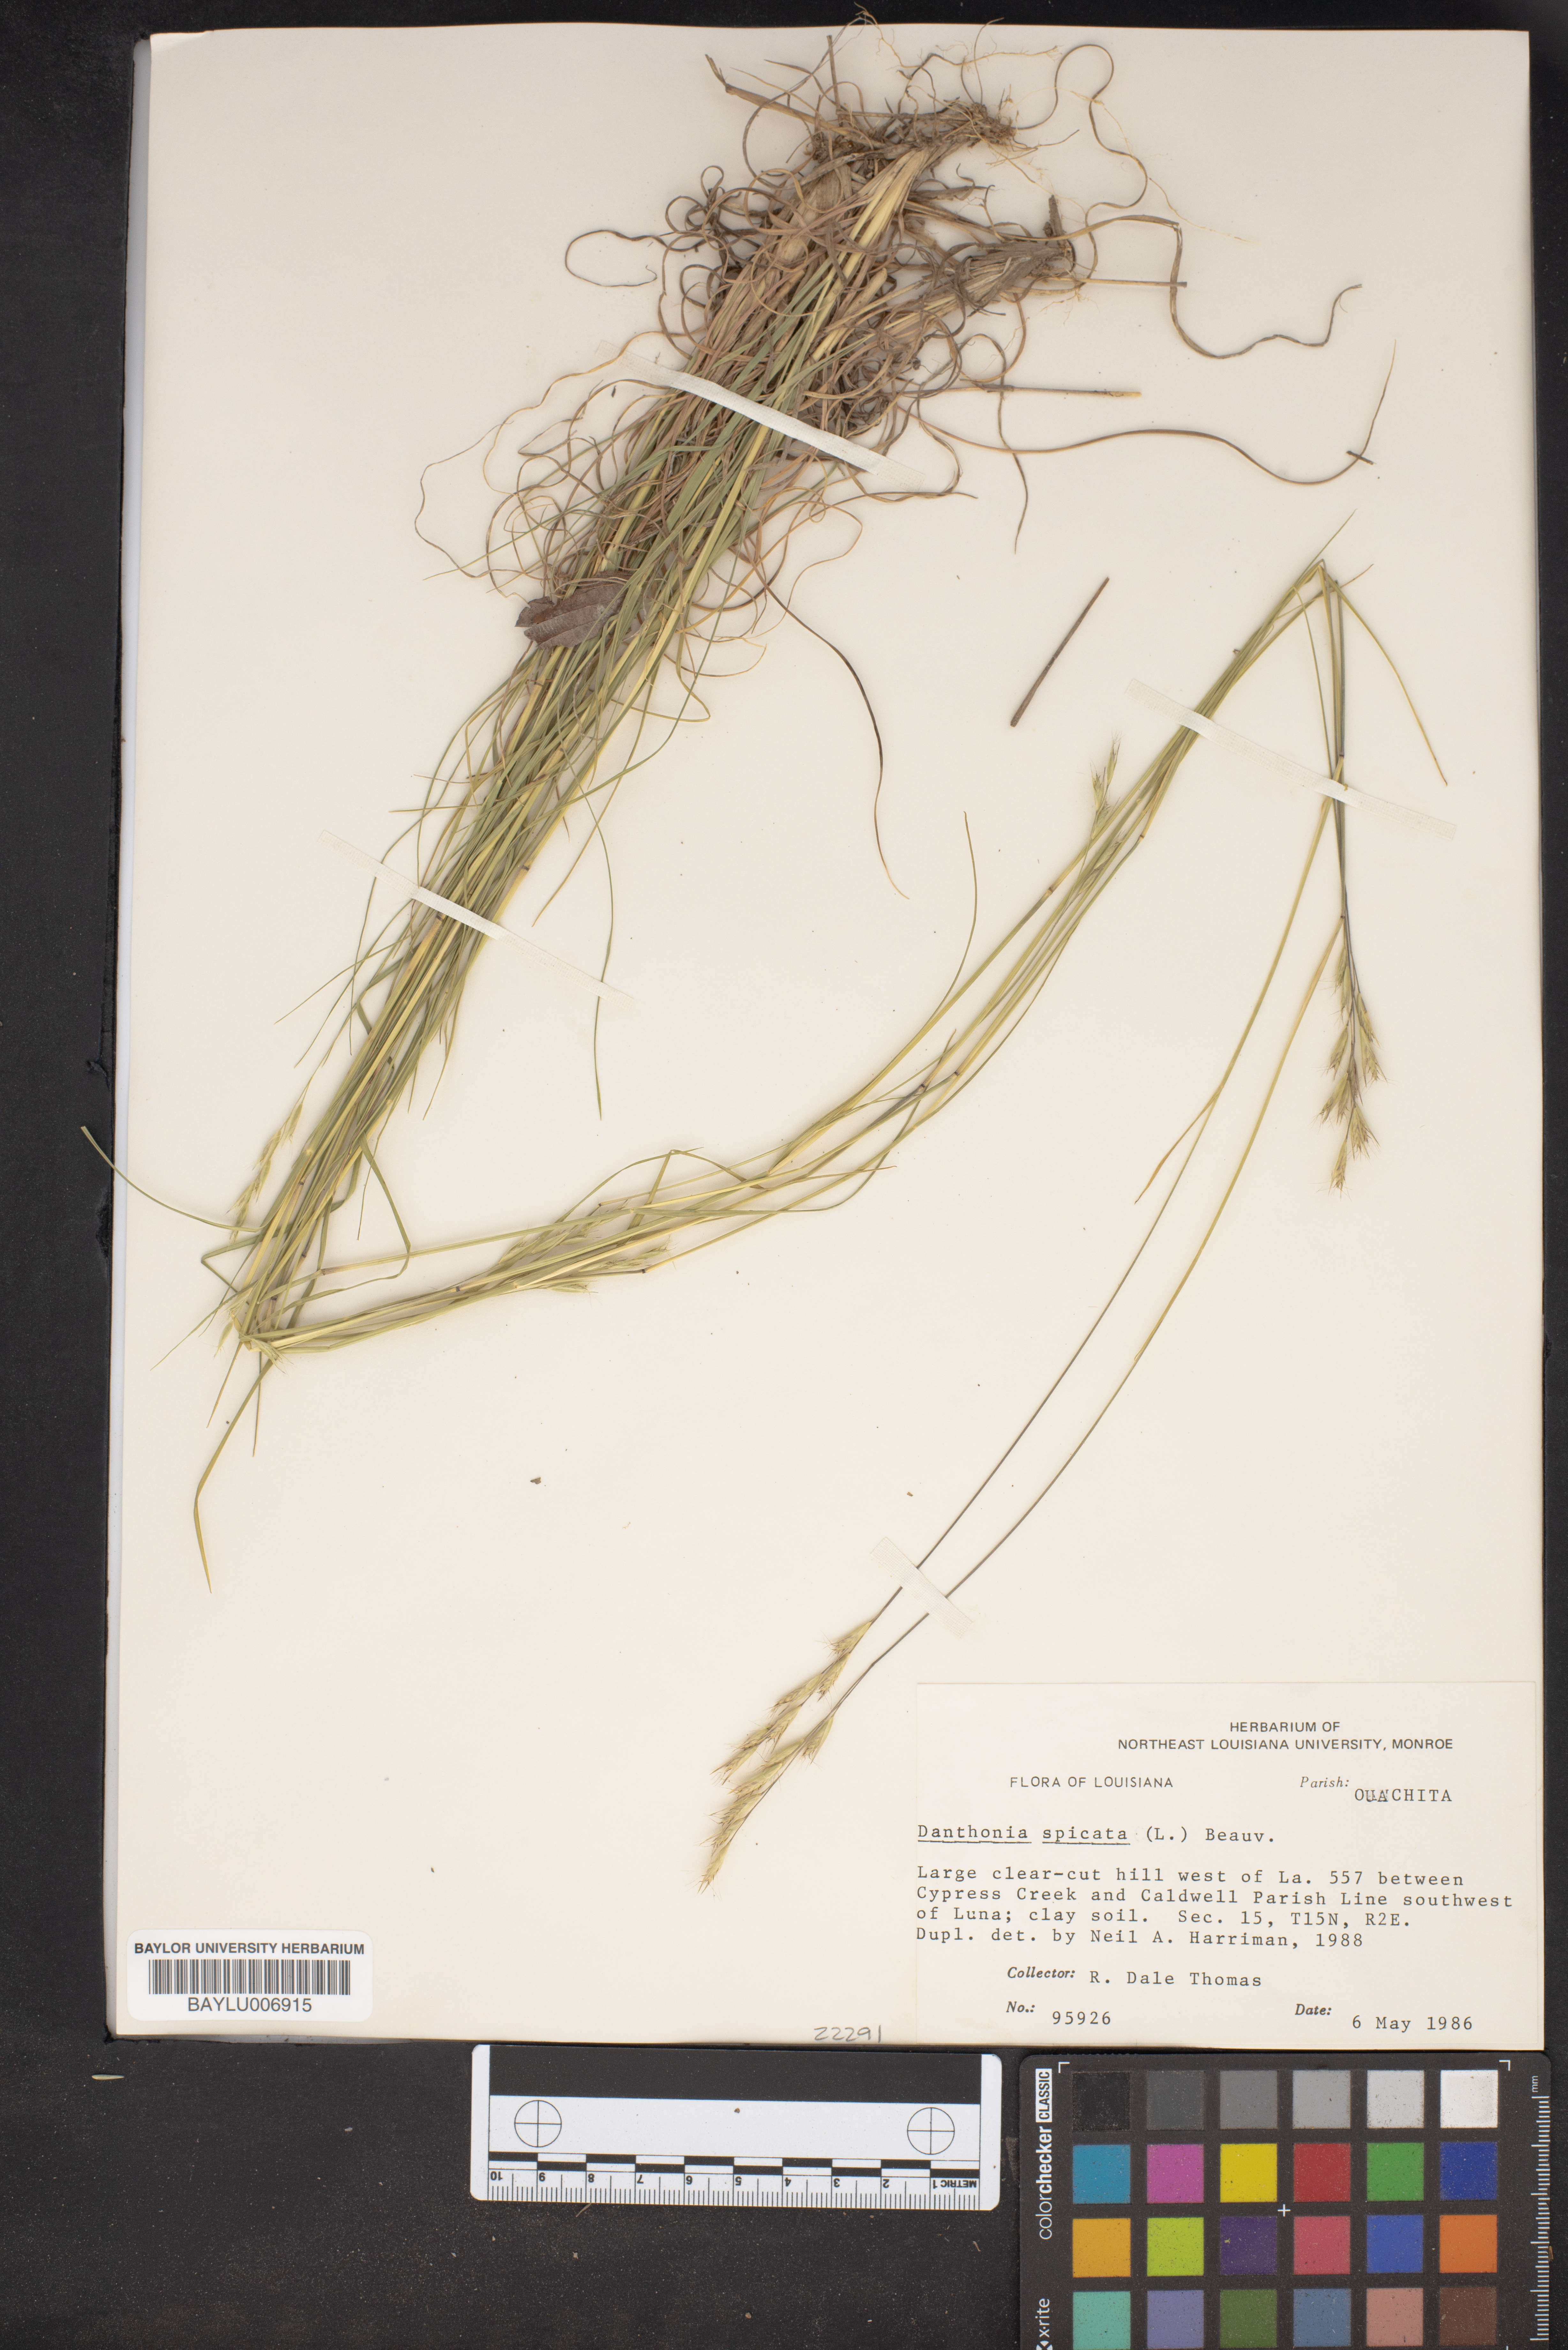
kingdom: Plantae
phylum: Tracheophyta
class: Liliopsida
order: Poales
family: Poaceae
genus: Danthonia
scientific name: Danthonia spicata
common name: Common wild oatgrass
